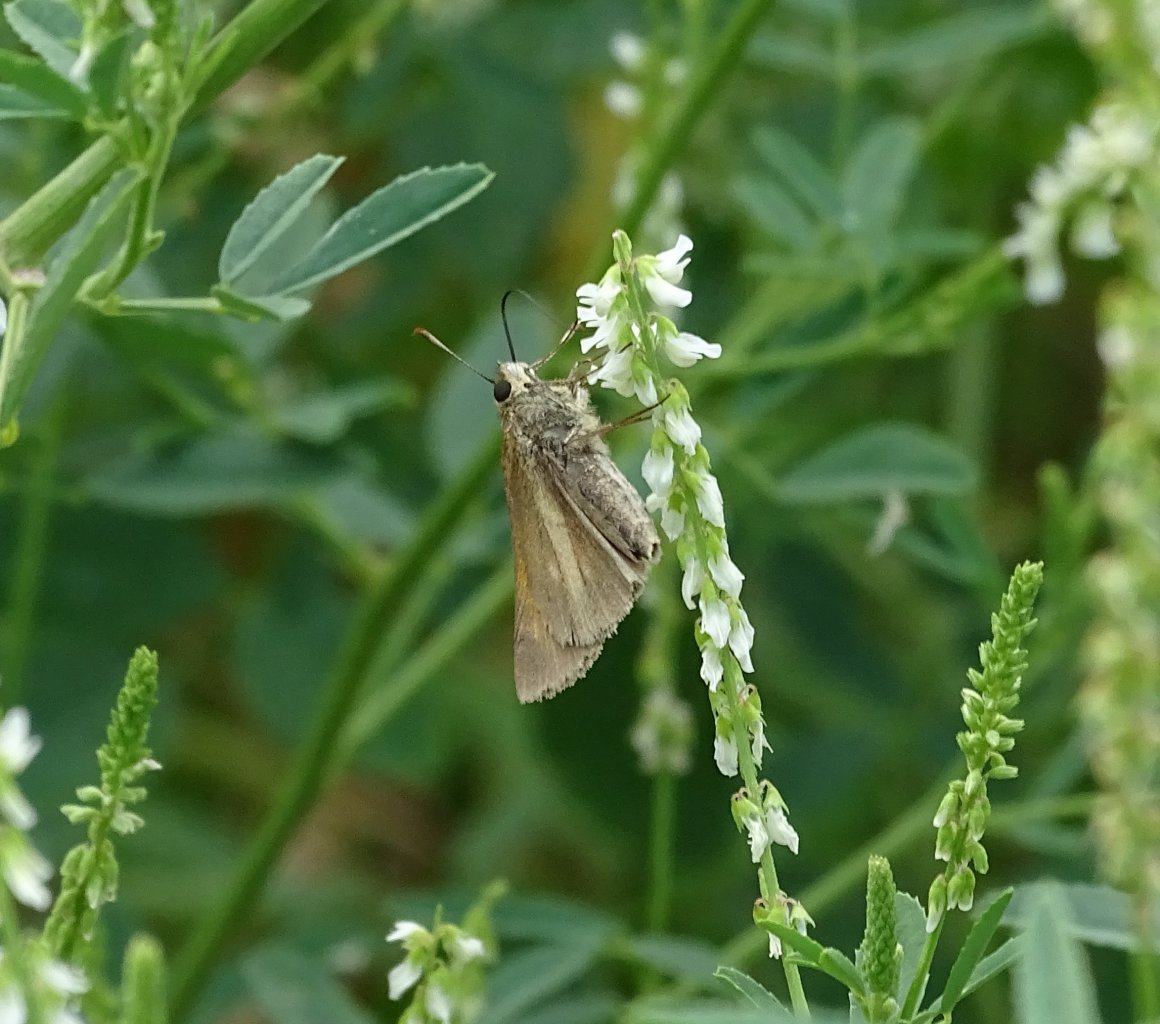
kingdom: Animalia
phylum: Arthropoda
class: Insecta
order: Lepidoptera
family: Hesperiidae
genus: Poanes
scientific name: Poanes aaroni
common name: Aaron's Skipper
